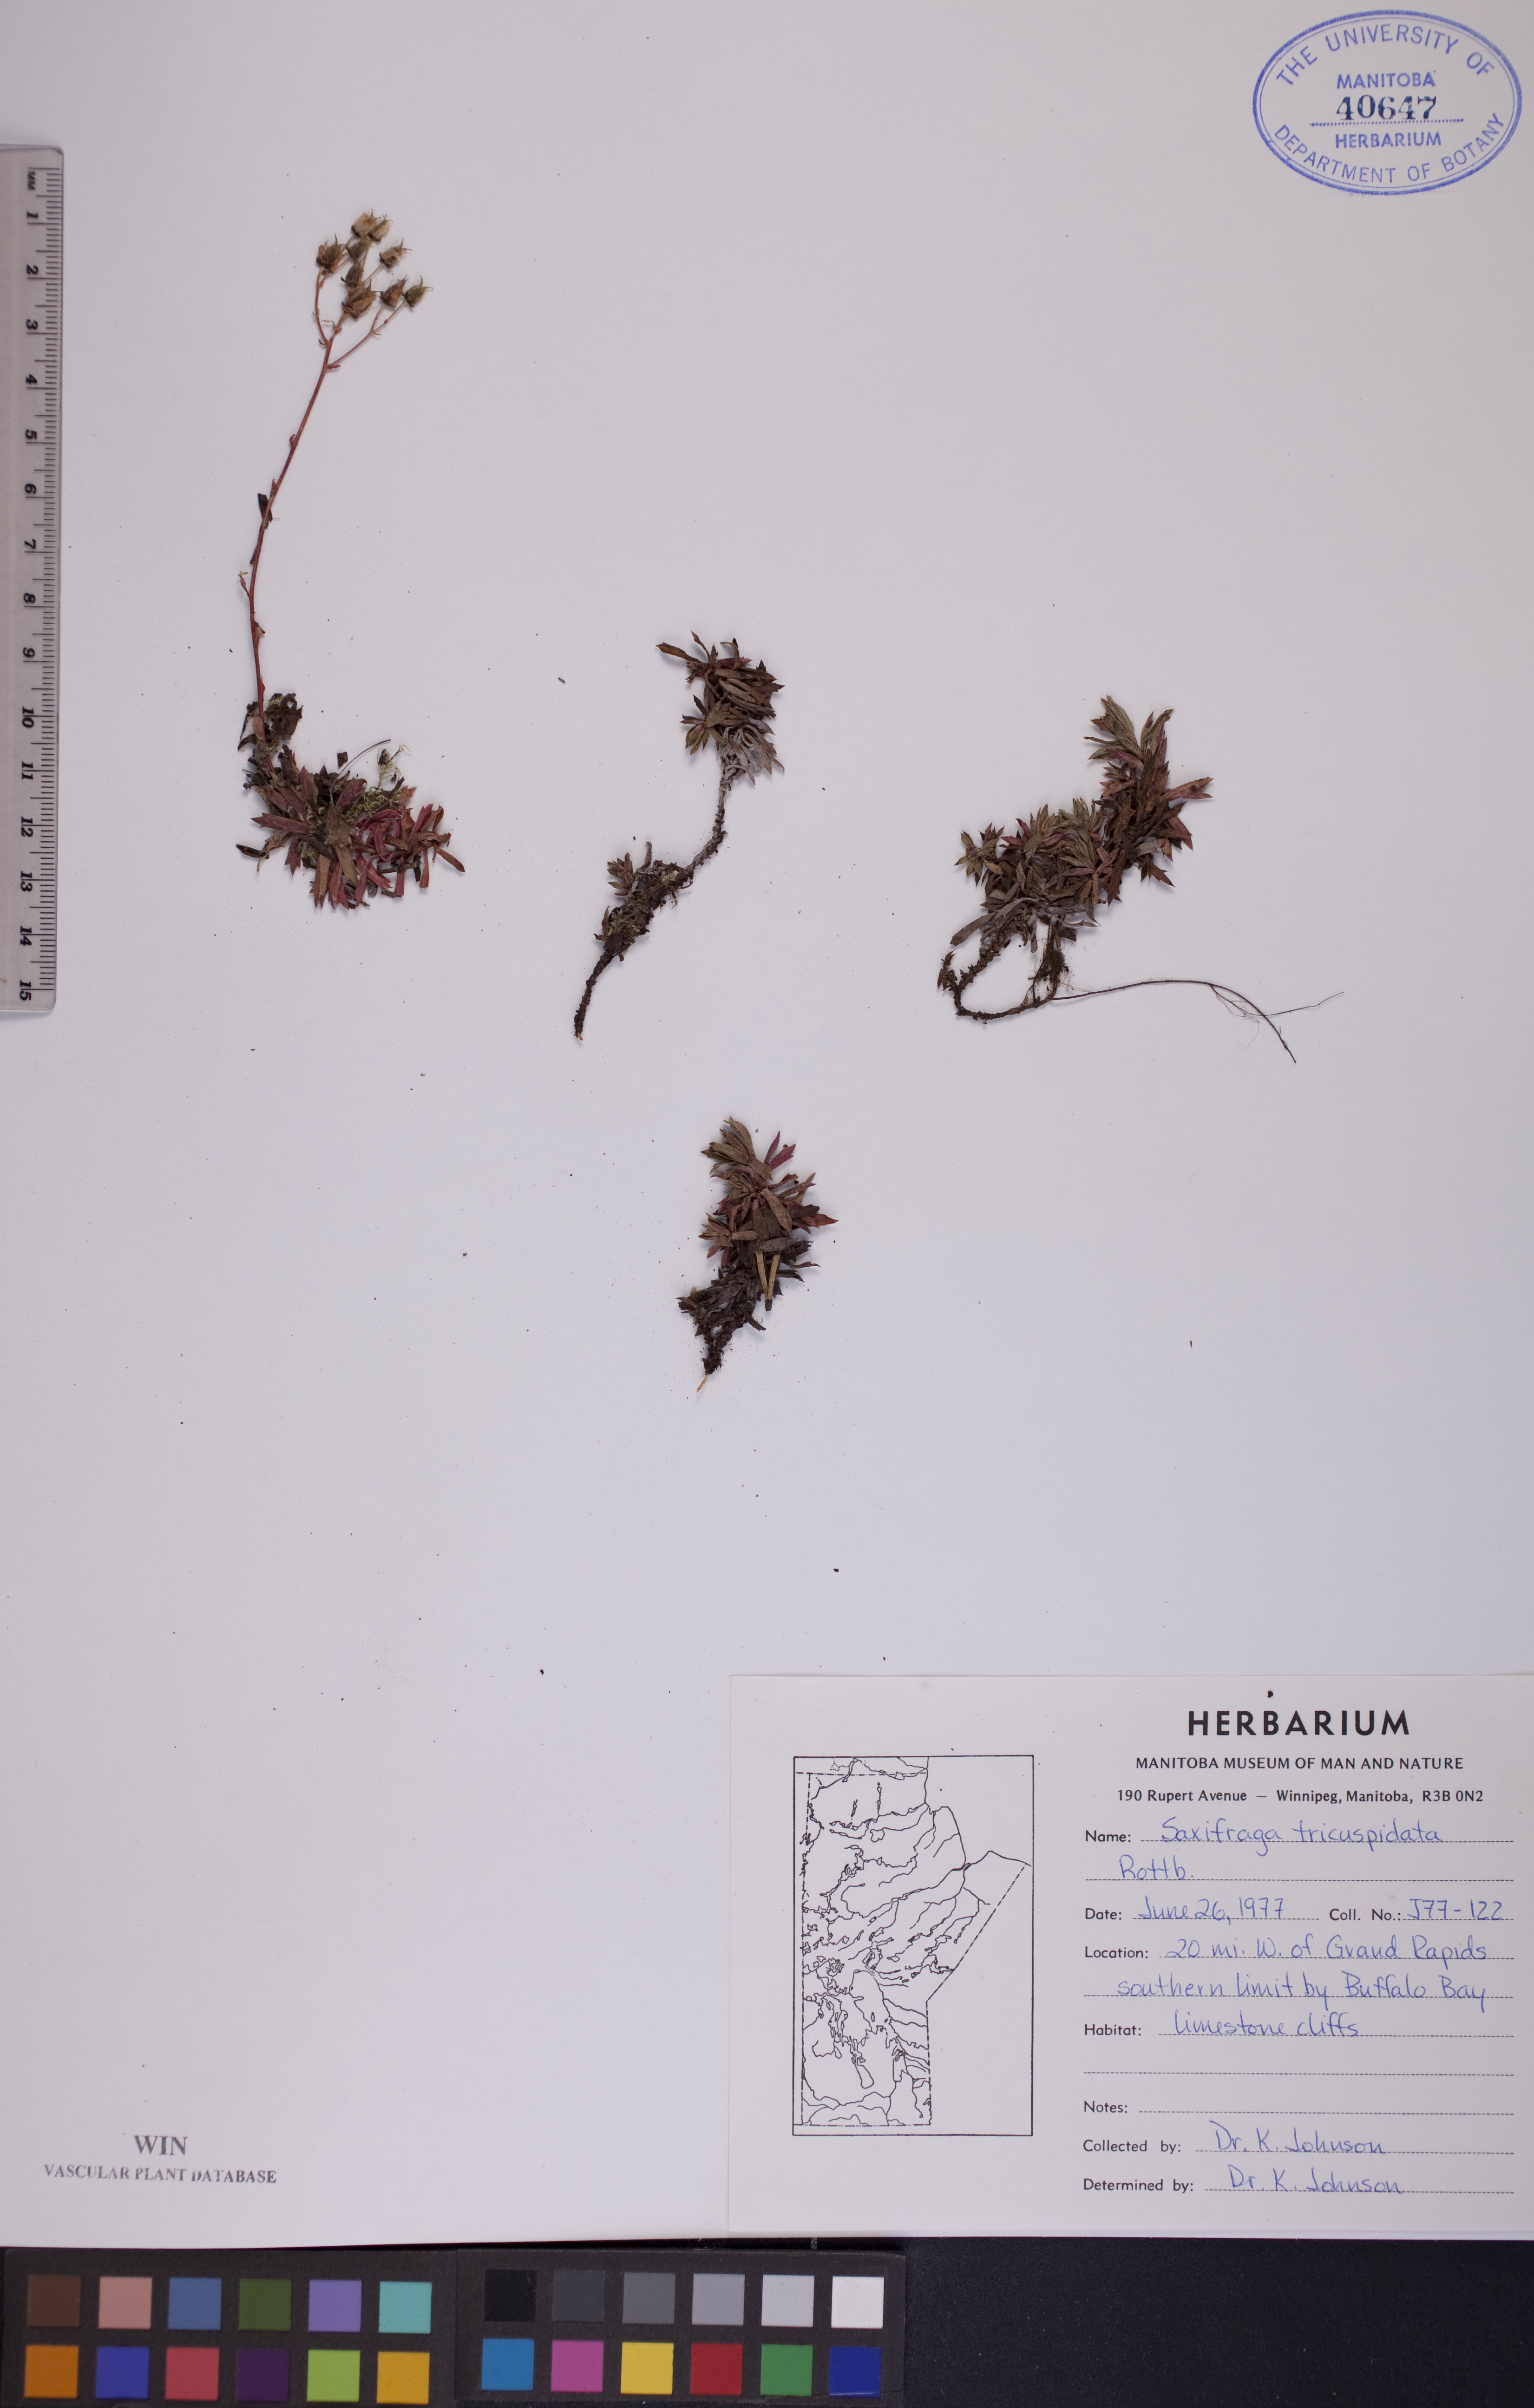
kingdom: Plantae
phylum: Tracheophyta
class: Magnoliopsida
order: Saxifragales
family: Saxifragaceae
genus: Saxifraga
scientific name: Saxifraga tricuspidata
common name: Prickly saxifrage
